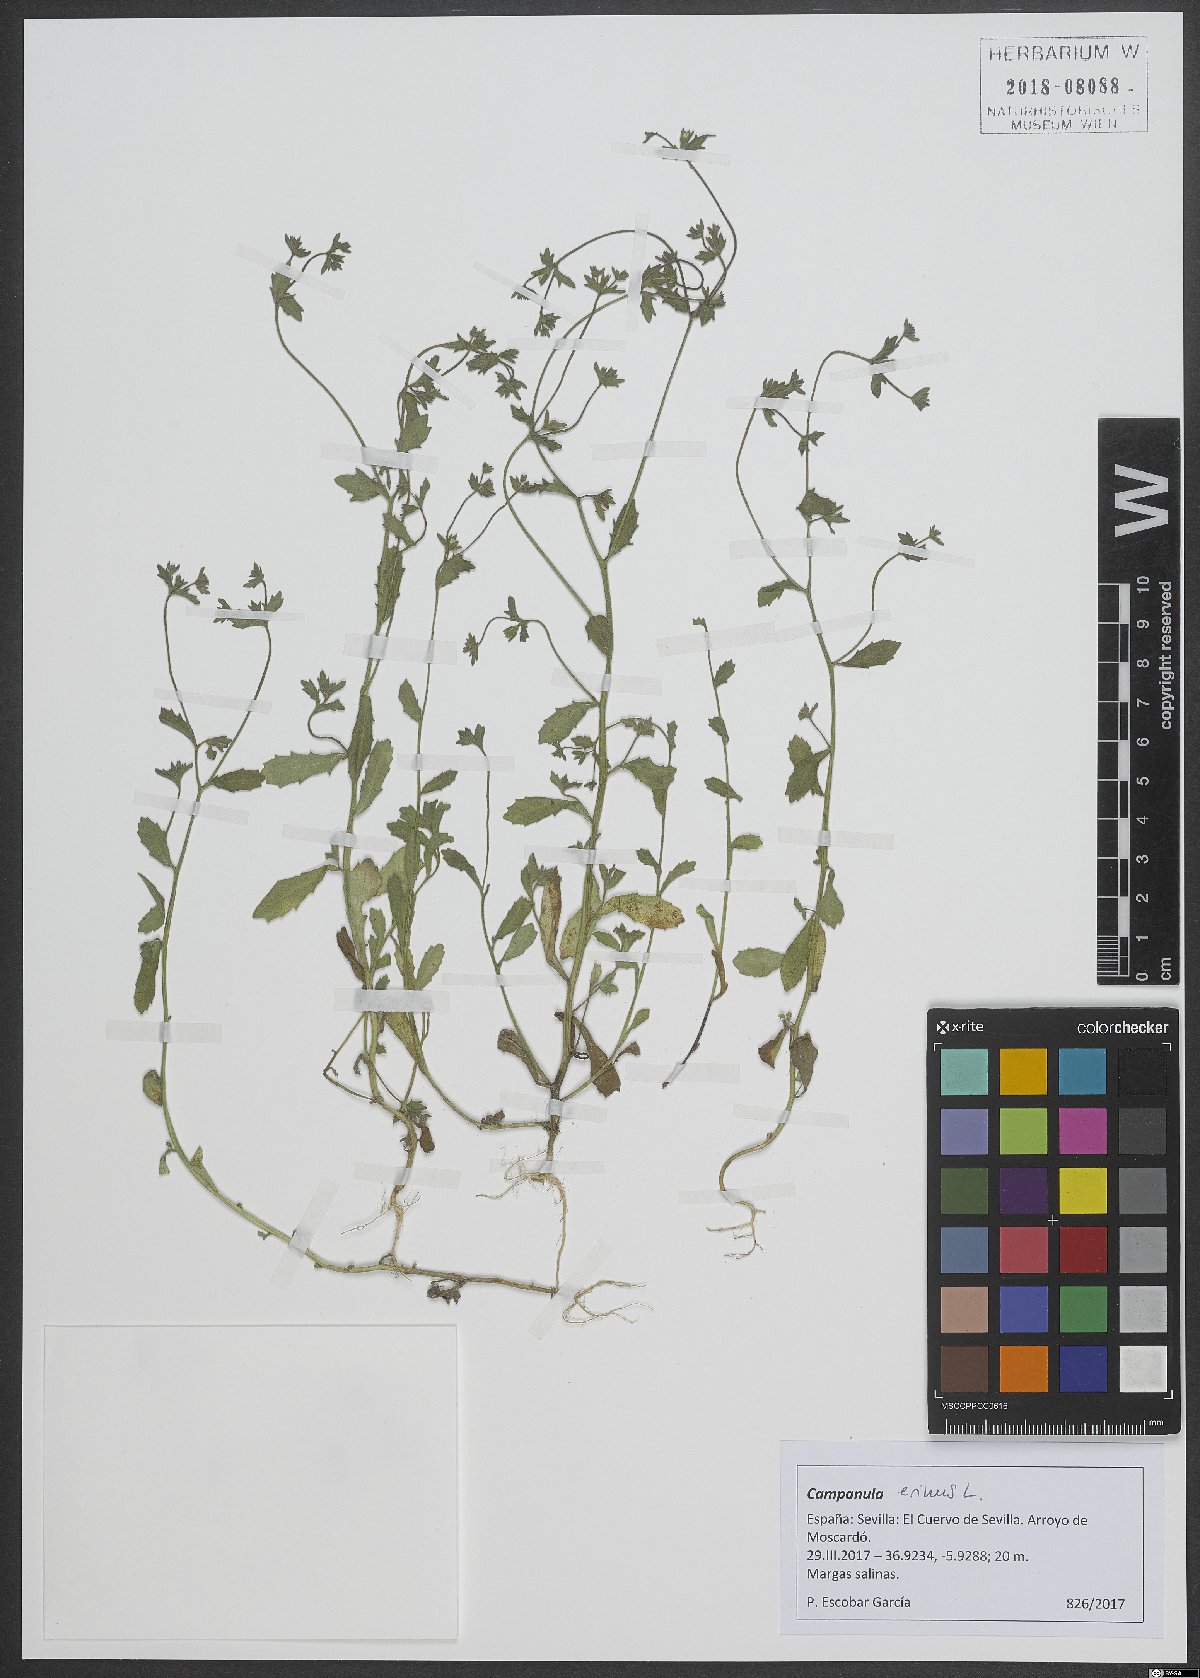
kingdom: Plantae
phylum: Tracheophyta
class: Magnoliopsida
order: Asterales
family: Campanulaceae
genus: Campanula
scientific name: Campanula erinus
